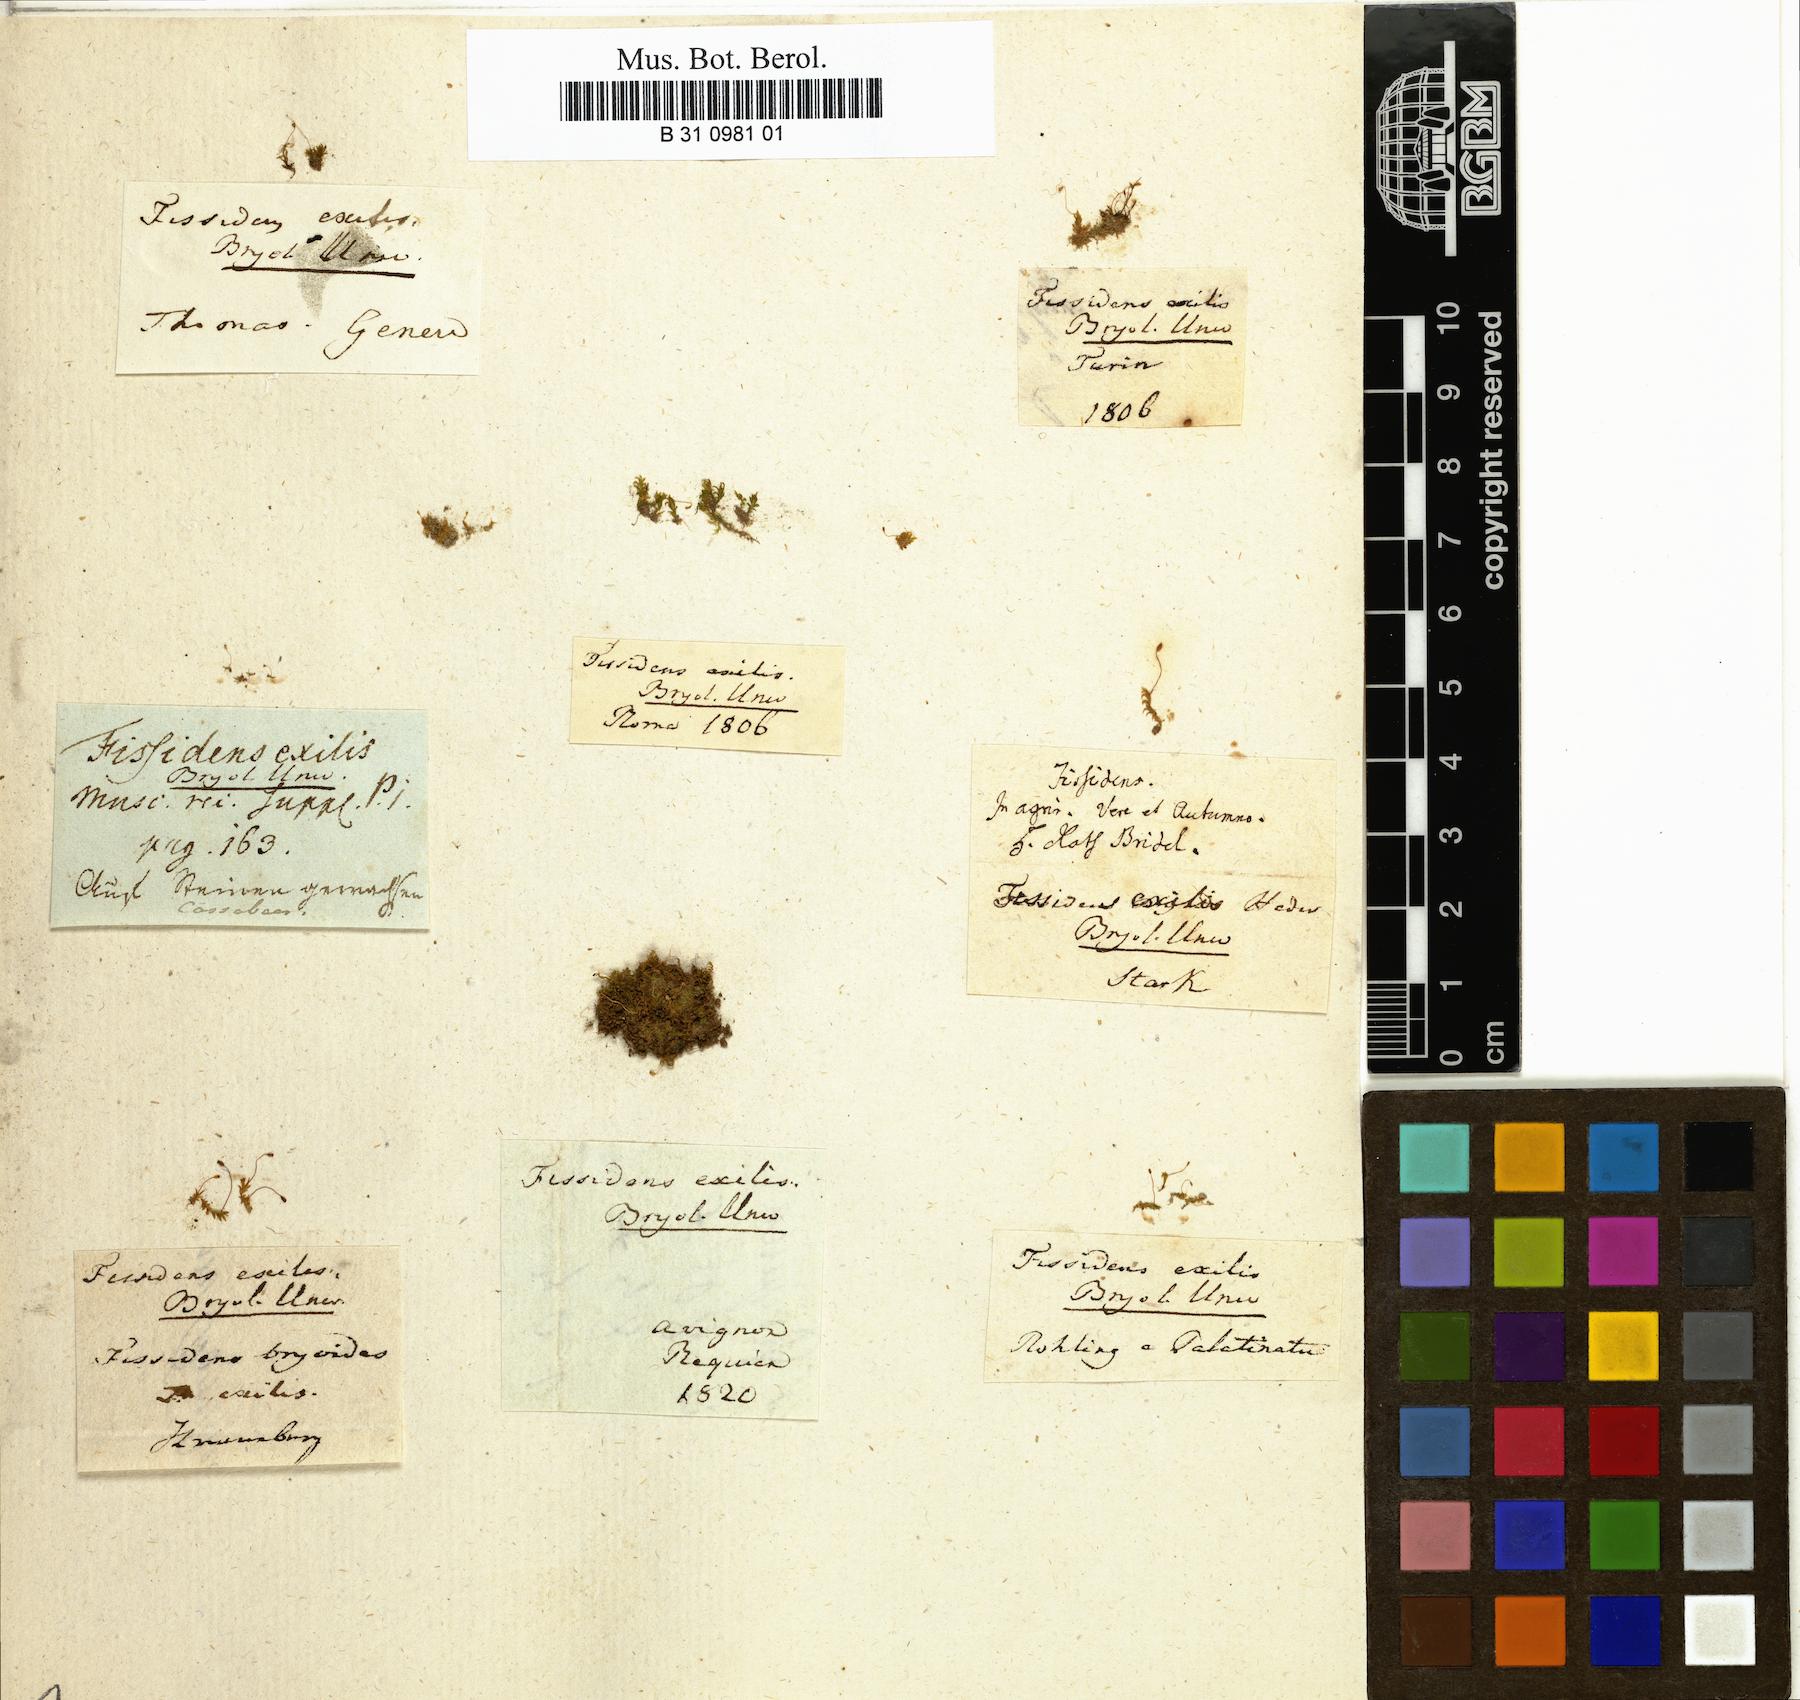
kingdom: Plantae
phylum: Bryophyta
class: Bryopsida
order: Dicranales
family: Fissidentaceae
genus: Fissidens
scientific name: Fissidens exilis
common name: Pygmy pocket moss
